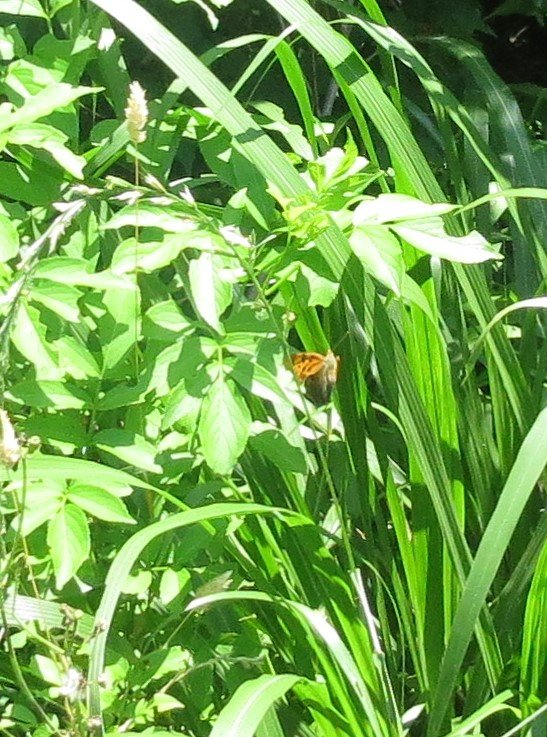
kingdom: Animalia
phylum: Arthropoda
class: Insecta
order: Lepidoptera
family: Nymphalidae
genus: Polygonia
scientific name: Polygonia
